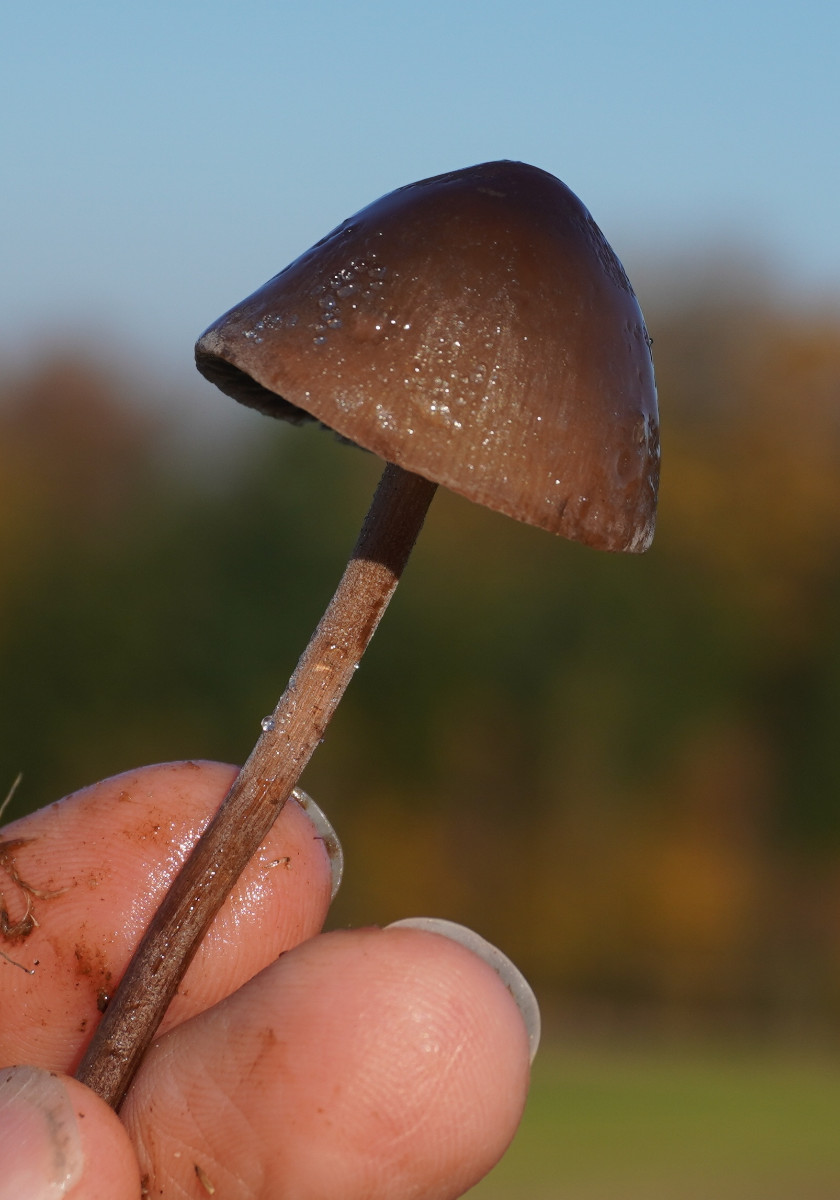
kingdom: Fungi
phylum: Basidiomycota
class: Agaricomycetes
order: Agaricales
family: Bolbitiaceae
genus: Panaeolus
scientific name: Panaeolus acuminatus
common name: høj glanshat
